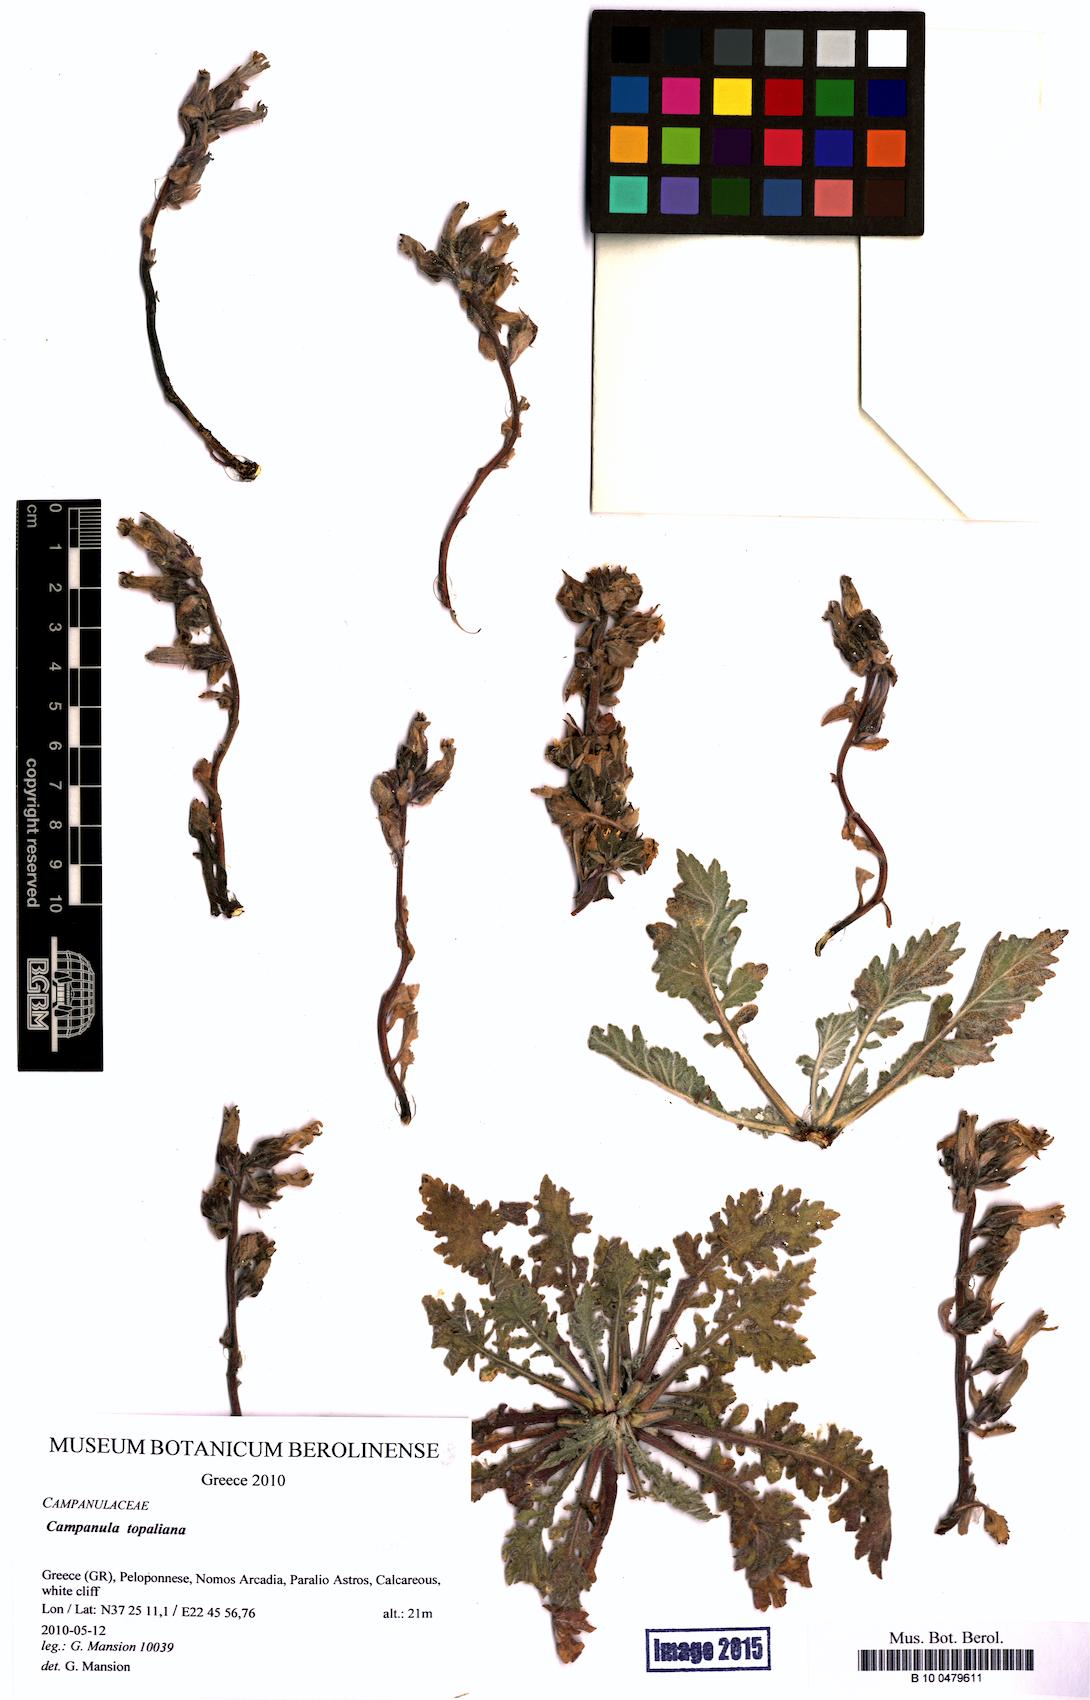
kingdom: Plantae
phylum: Tracheophyta
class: Magnoliopsida
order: Asterales
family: Campanulaceae
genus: Campanula
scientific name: Campanula topaliana
